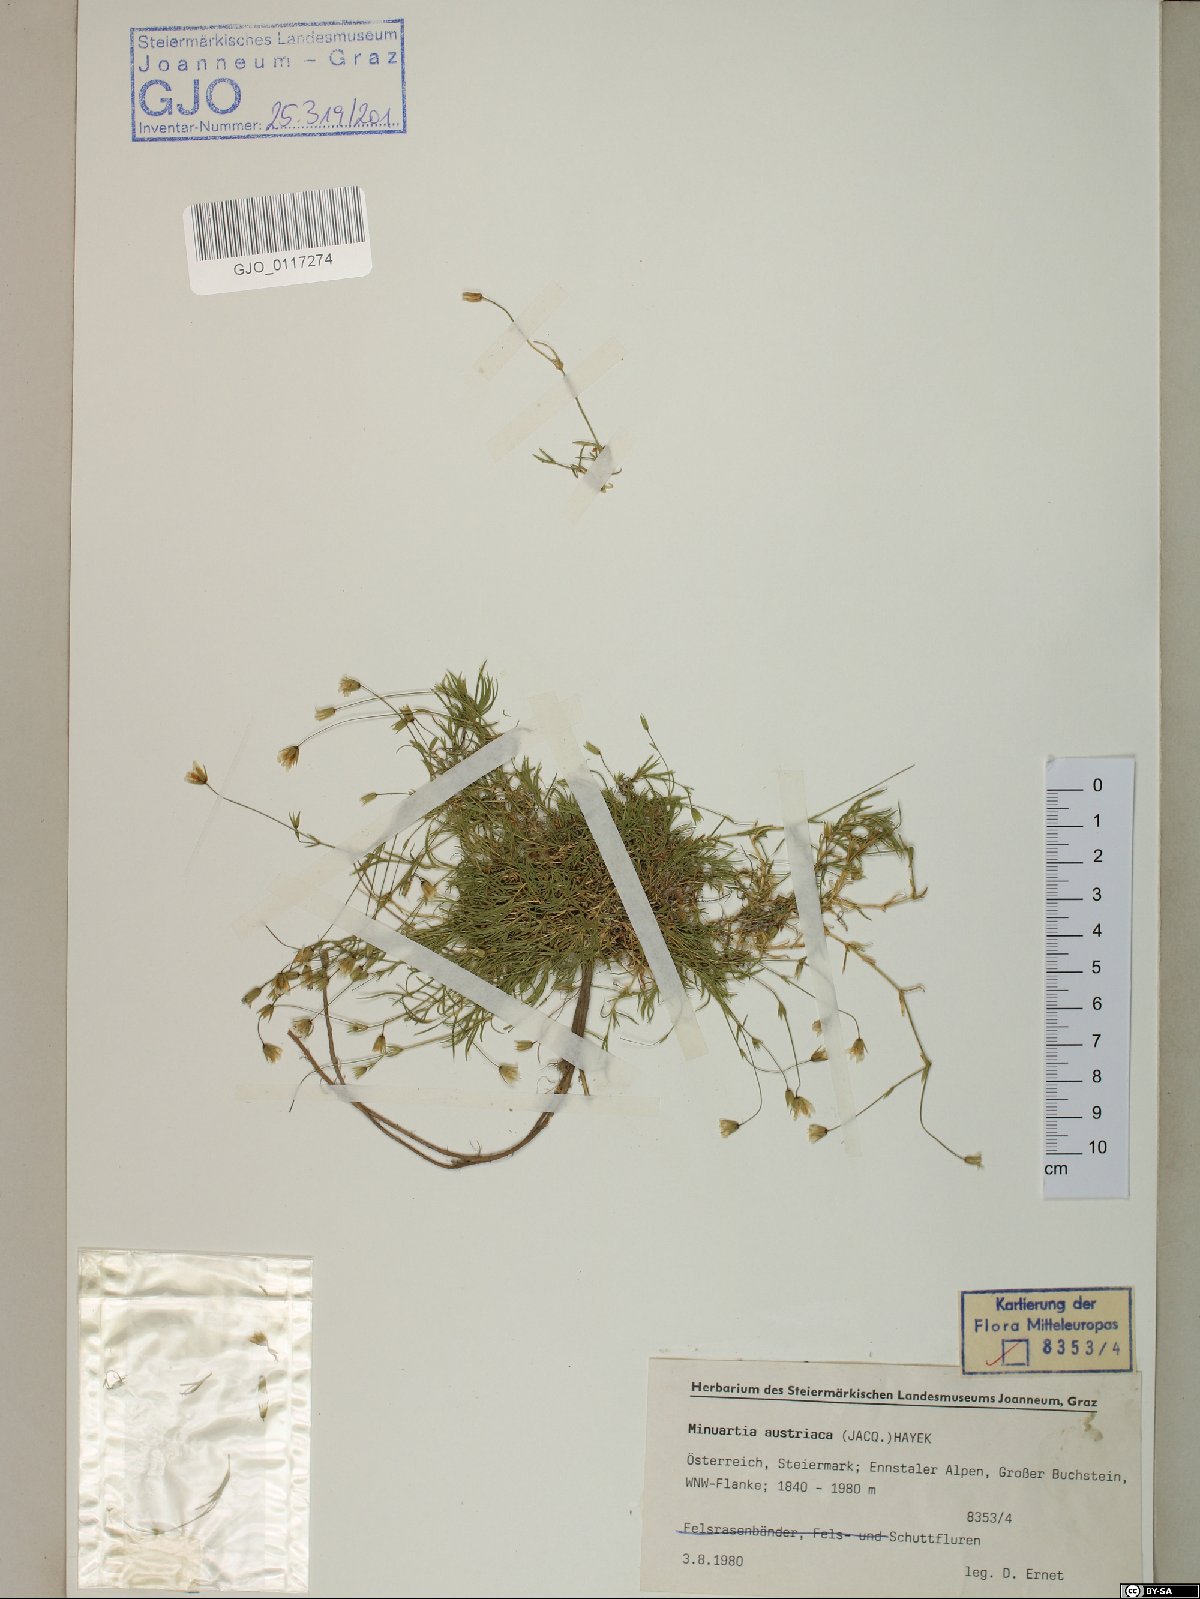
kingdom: Plantae
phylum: Tracheophyta
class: Magnoliopsida
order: Caryophyllales
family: Caryophyllaceae
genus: Sabulina
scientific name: Sabulina austriaca
